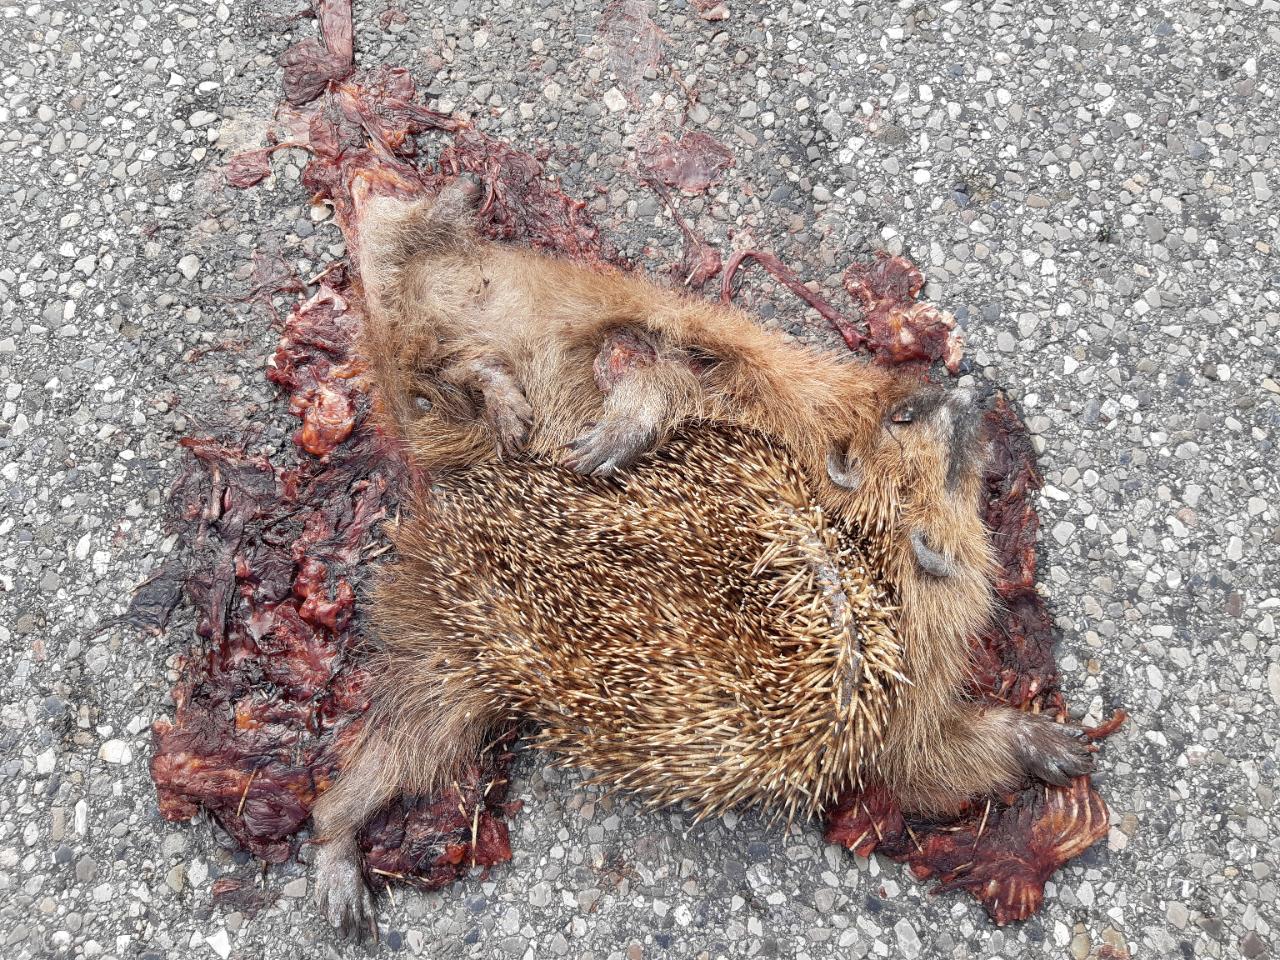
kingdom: Animalia
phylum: Chordata
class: Mammalia
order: Erinaceomorpha
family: Erinaceidae
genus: Erinaceus
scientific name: Erinaceus
